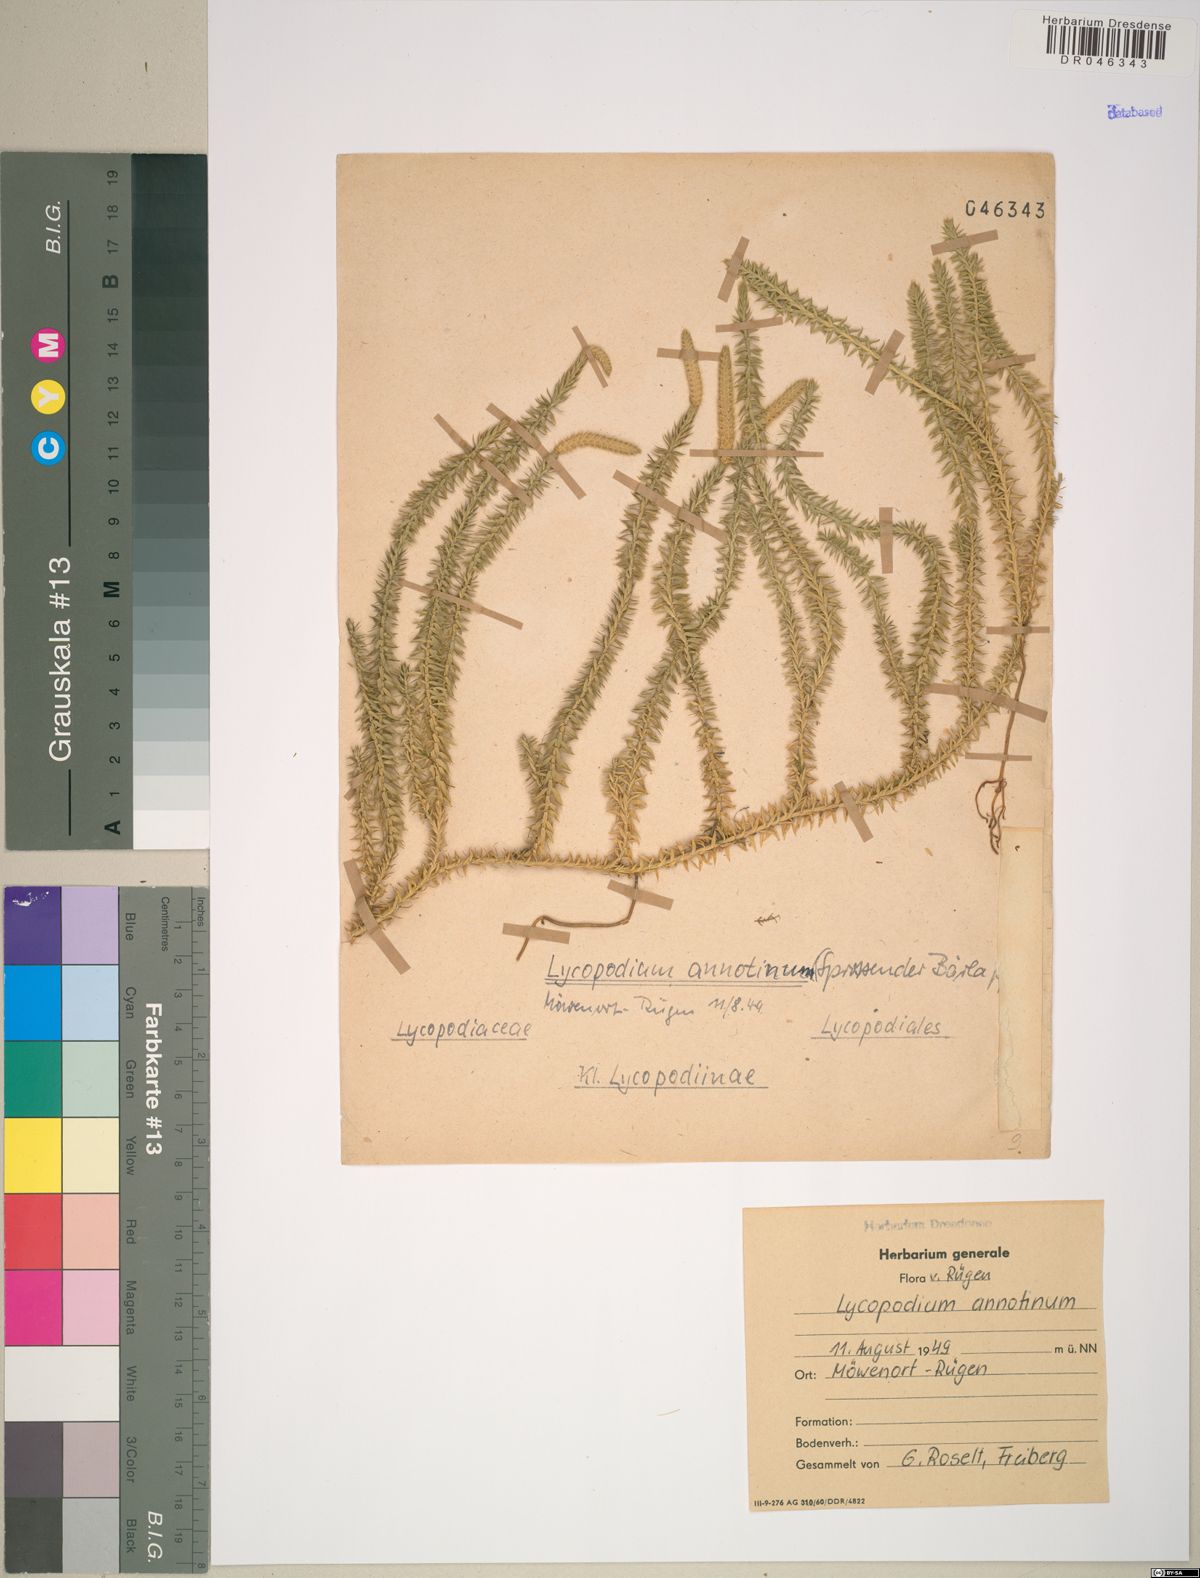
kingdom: Plantae
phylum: Tracheophyta
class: Lycopodiopsida
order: Lycopodiales
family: Lycopodiaceae
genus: Spinulum
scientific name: Spinulum annotinum
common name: Interrupted club-moss
